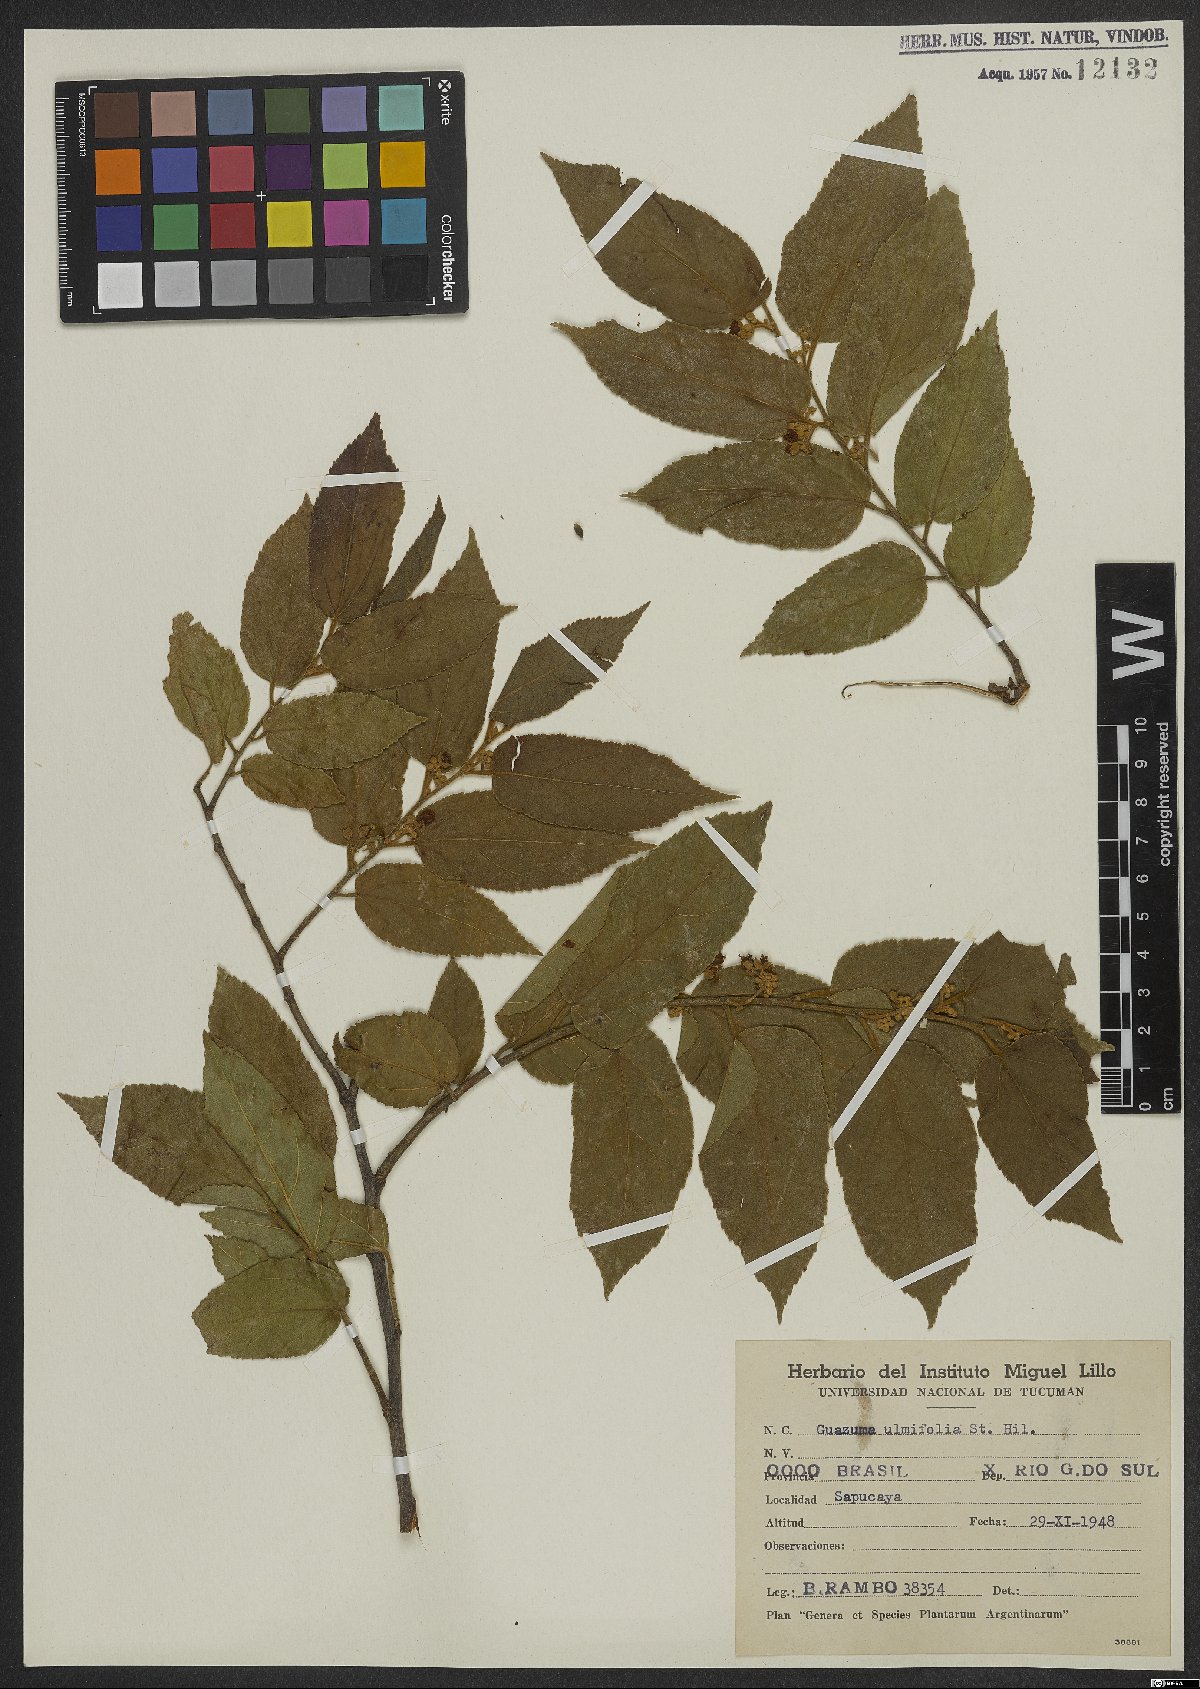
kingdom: Plantae
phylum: Tracheophyta
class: Magnoliopsida
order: Malvales
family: Malvaceae
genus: Guazuma
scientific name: Guazuma ulmifolia
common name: Bastard-cedar
